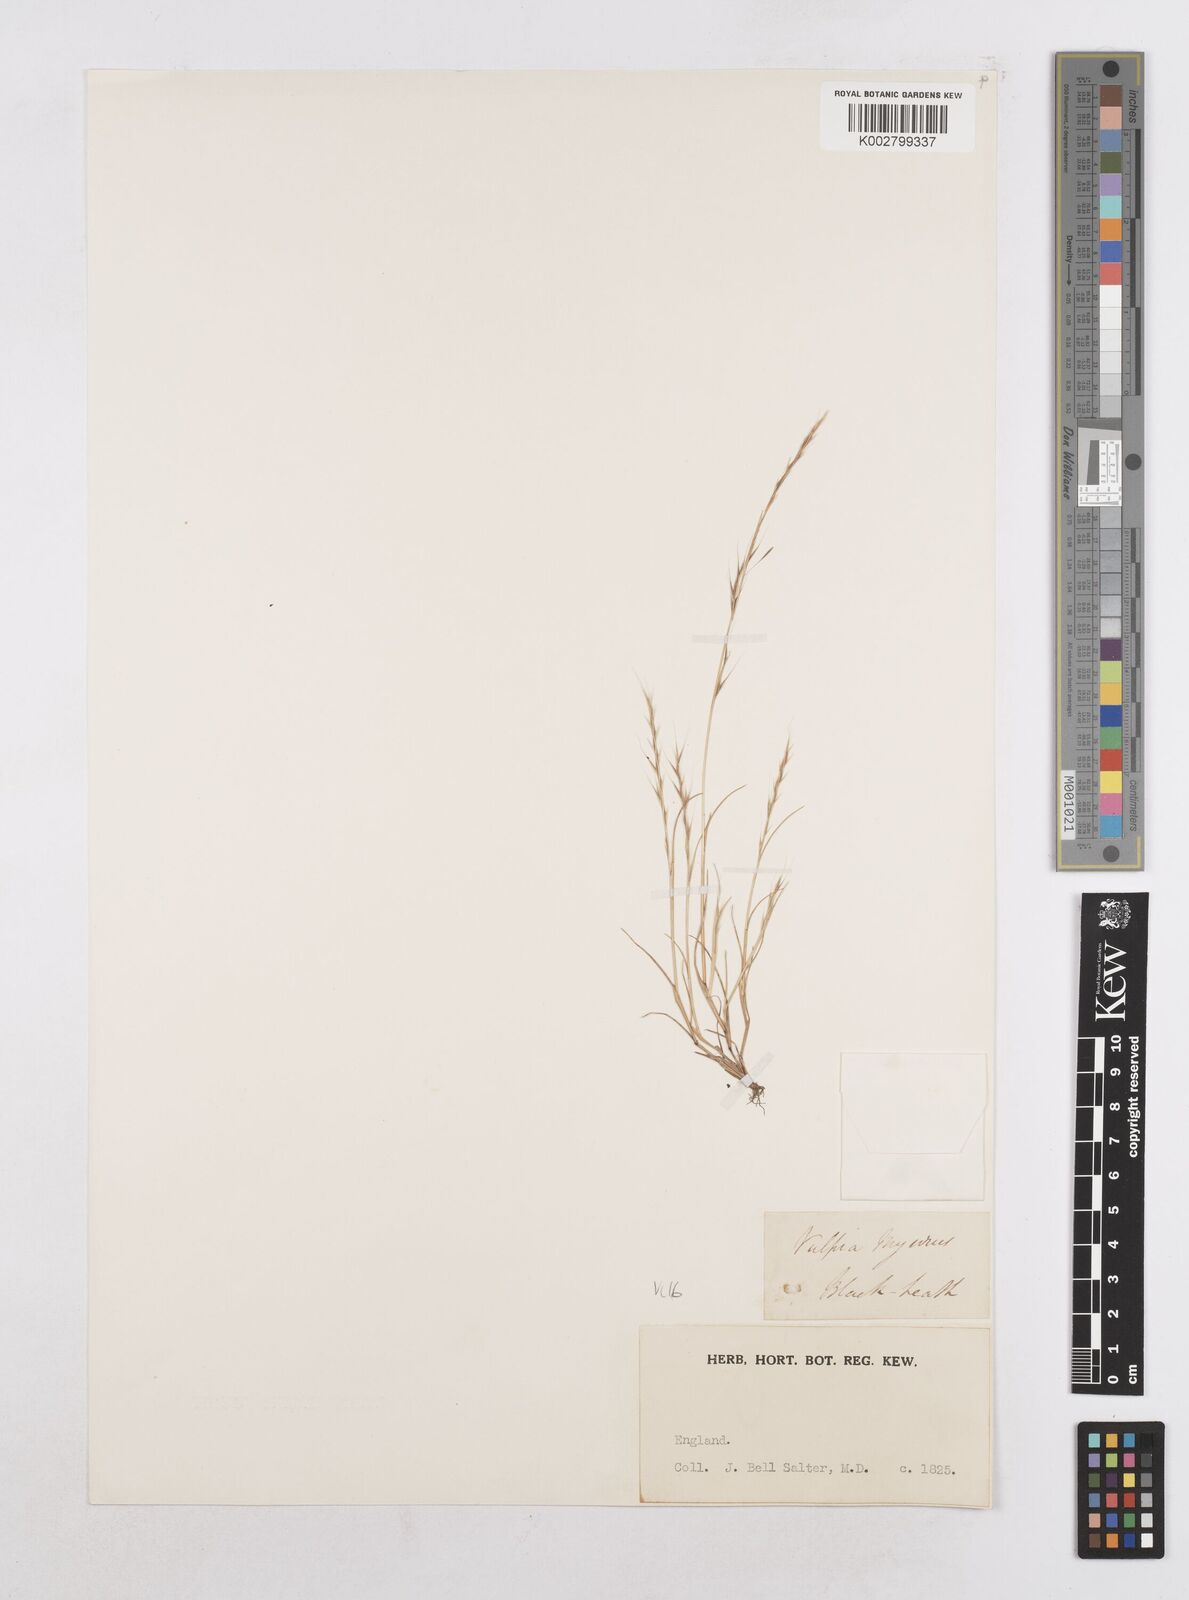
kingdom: Plantae
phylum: Tracheophyta
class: Liliopsida
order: Poales
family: Poaceae
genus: Festuca
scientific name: Festuca myuros
